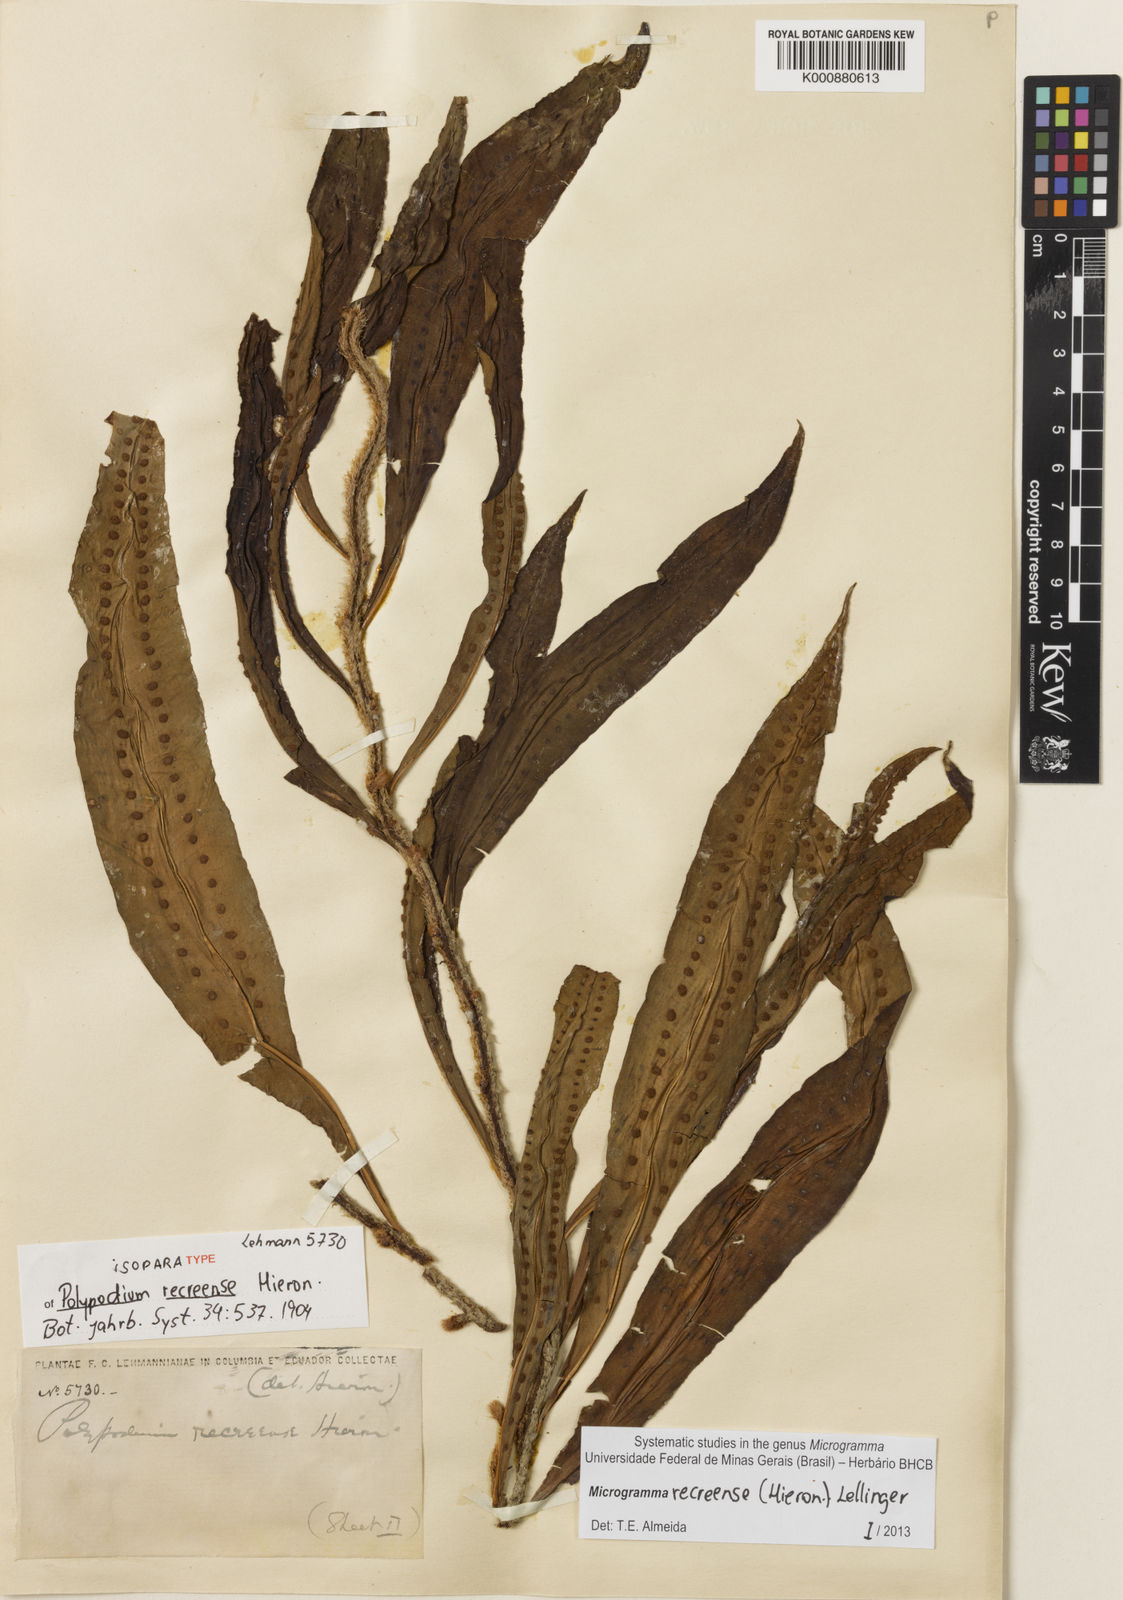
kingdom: Plantae
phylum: Tracheophyta
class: Polypodiopsida
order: Polypodiales
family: Polypodiaceae
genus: Microgramma
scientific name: Microgramma recreense
